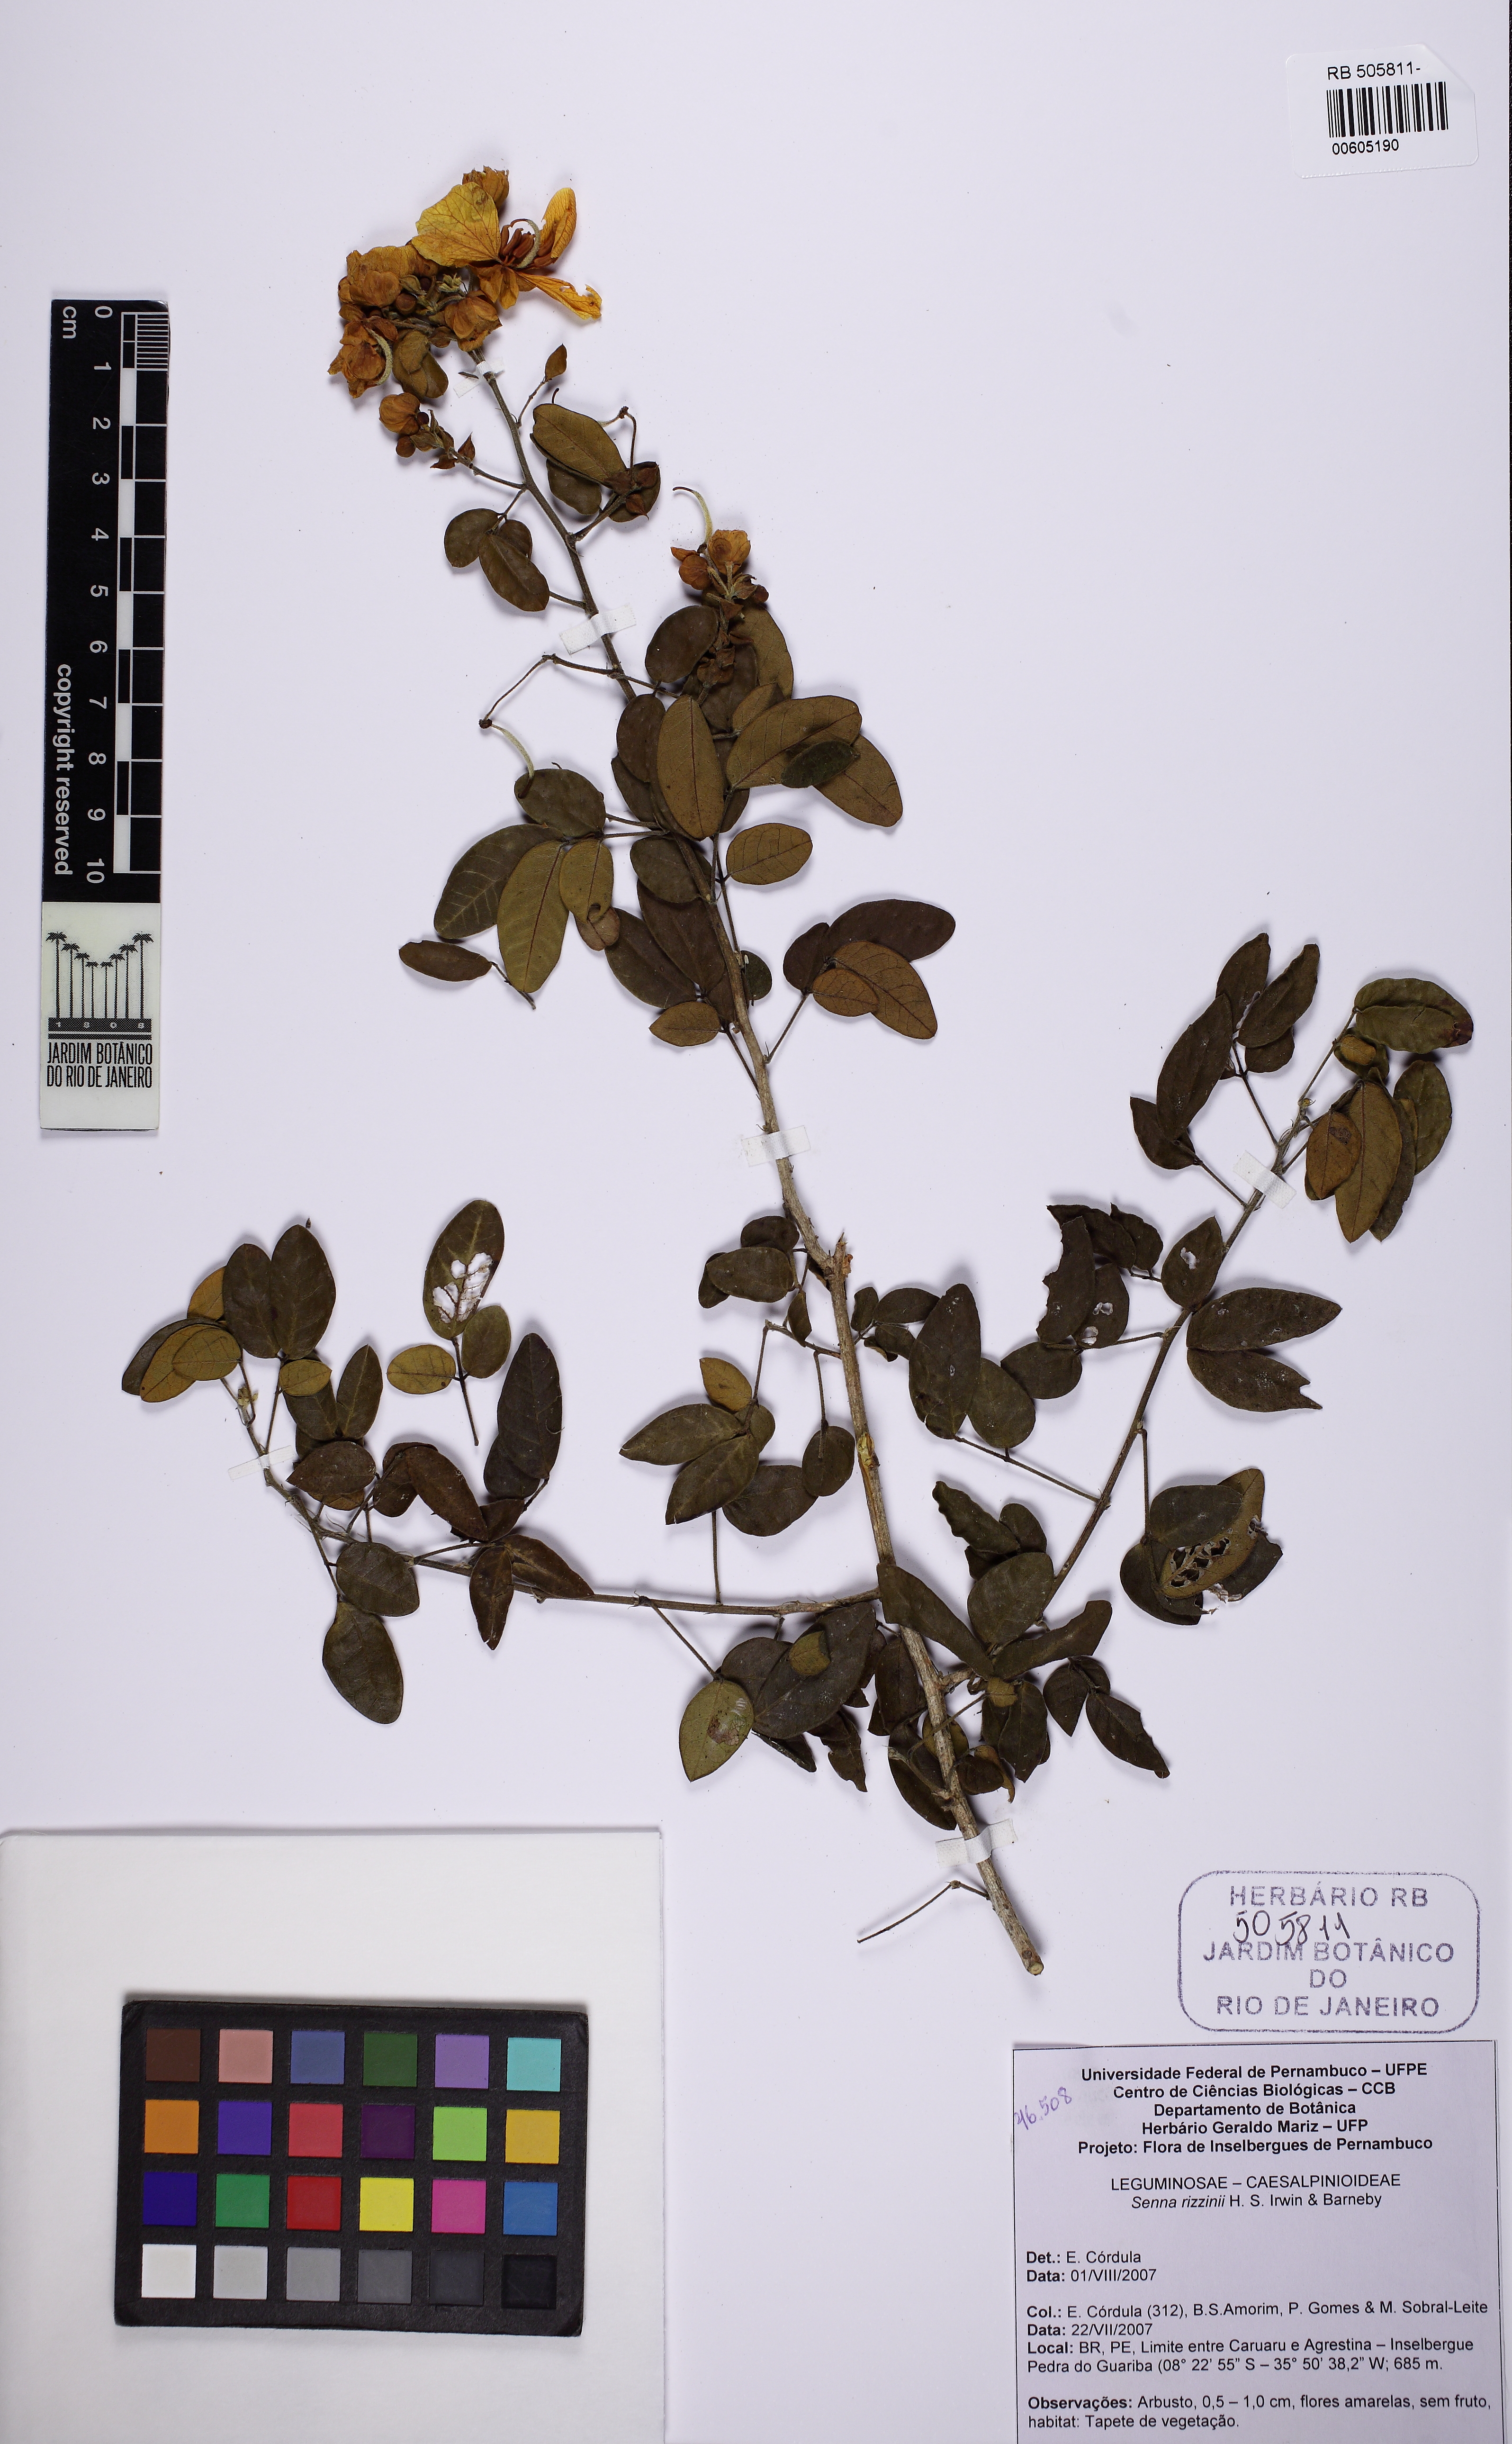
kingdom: Plantae
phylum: Tracheophyta
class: Magnoliopsida
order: Fabales
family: Fabaceae
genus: Senna
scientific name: Senna rizzinii
